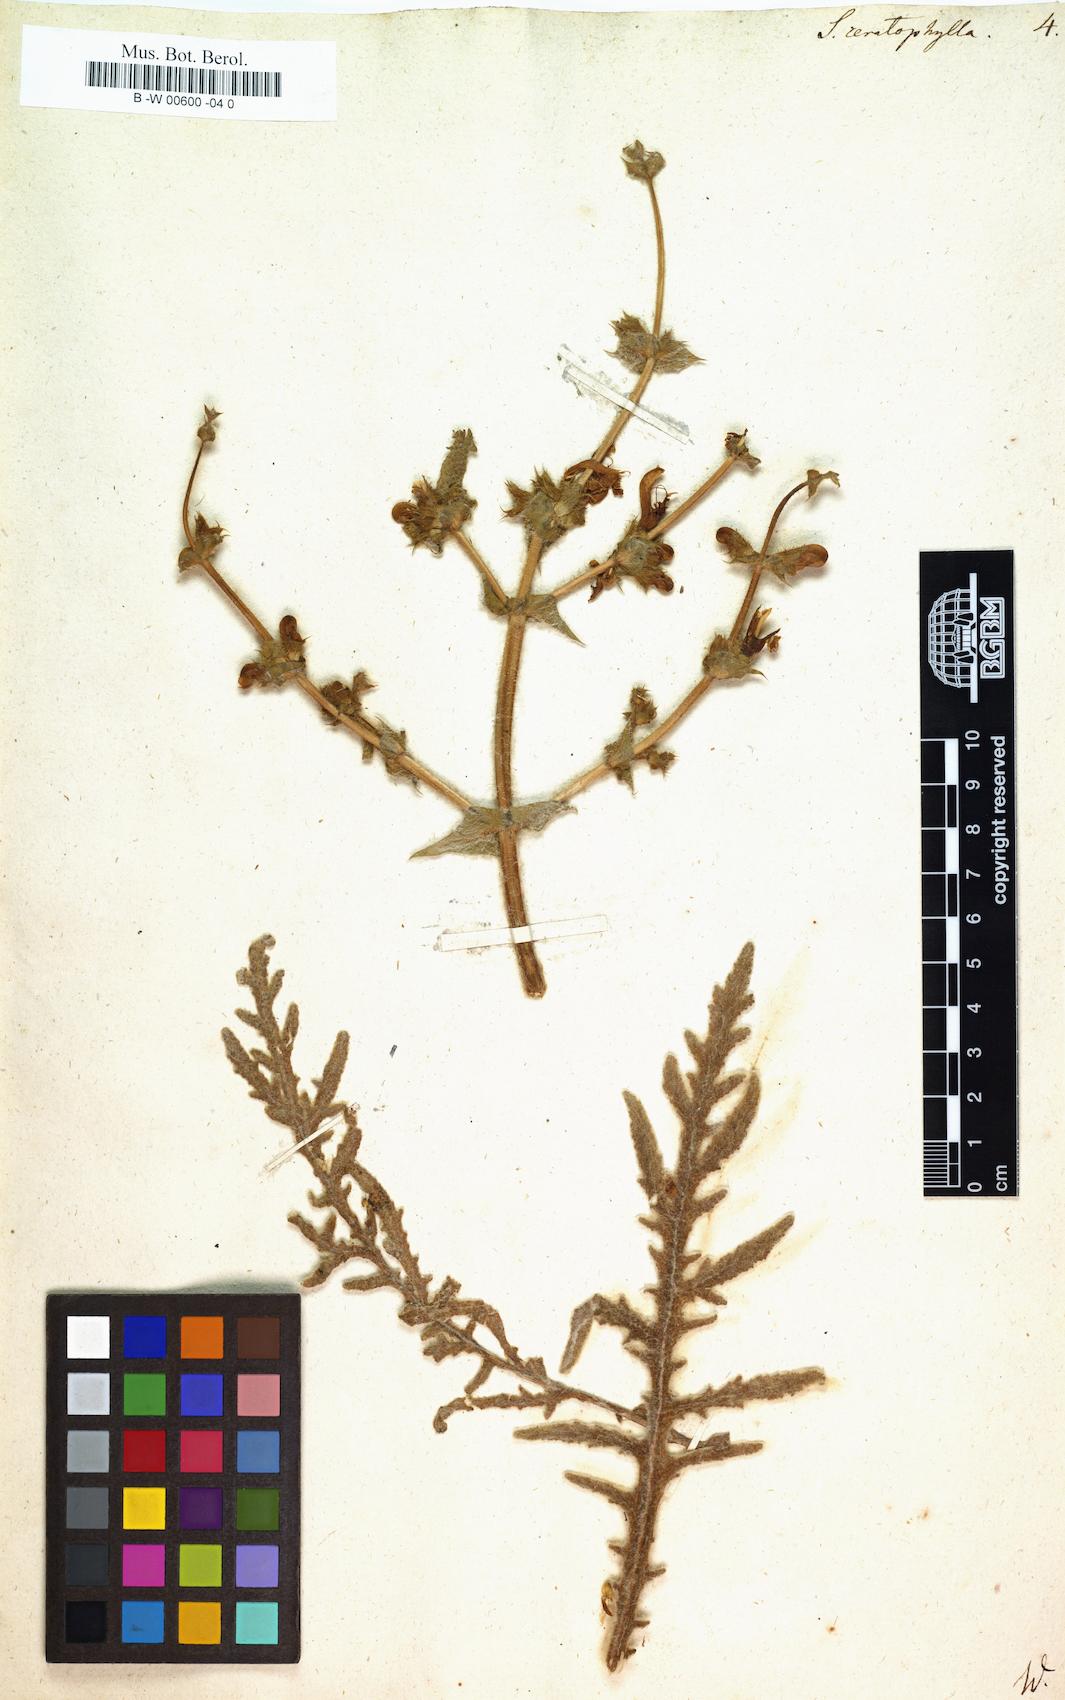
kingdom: Plantae
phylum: Tracheophyta
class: Magnoliopsida
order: Lamiales
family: Lamiaceae
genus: Salvia
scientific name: Salvia pratensis
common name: Meadow sage
